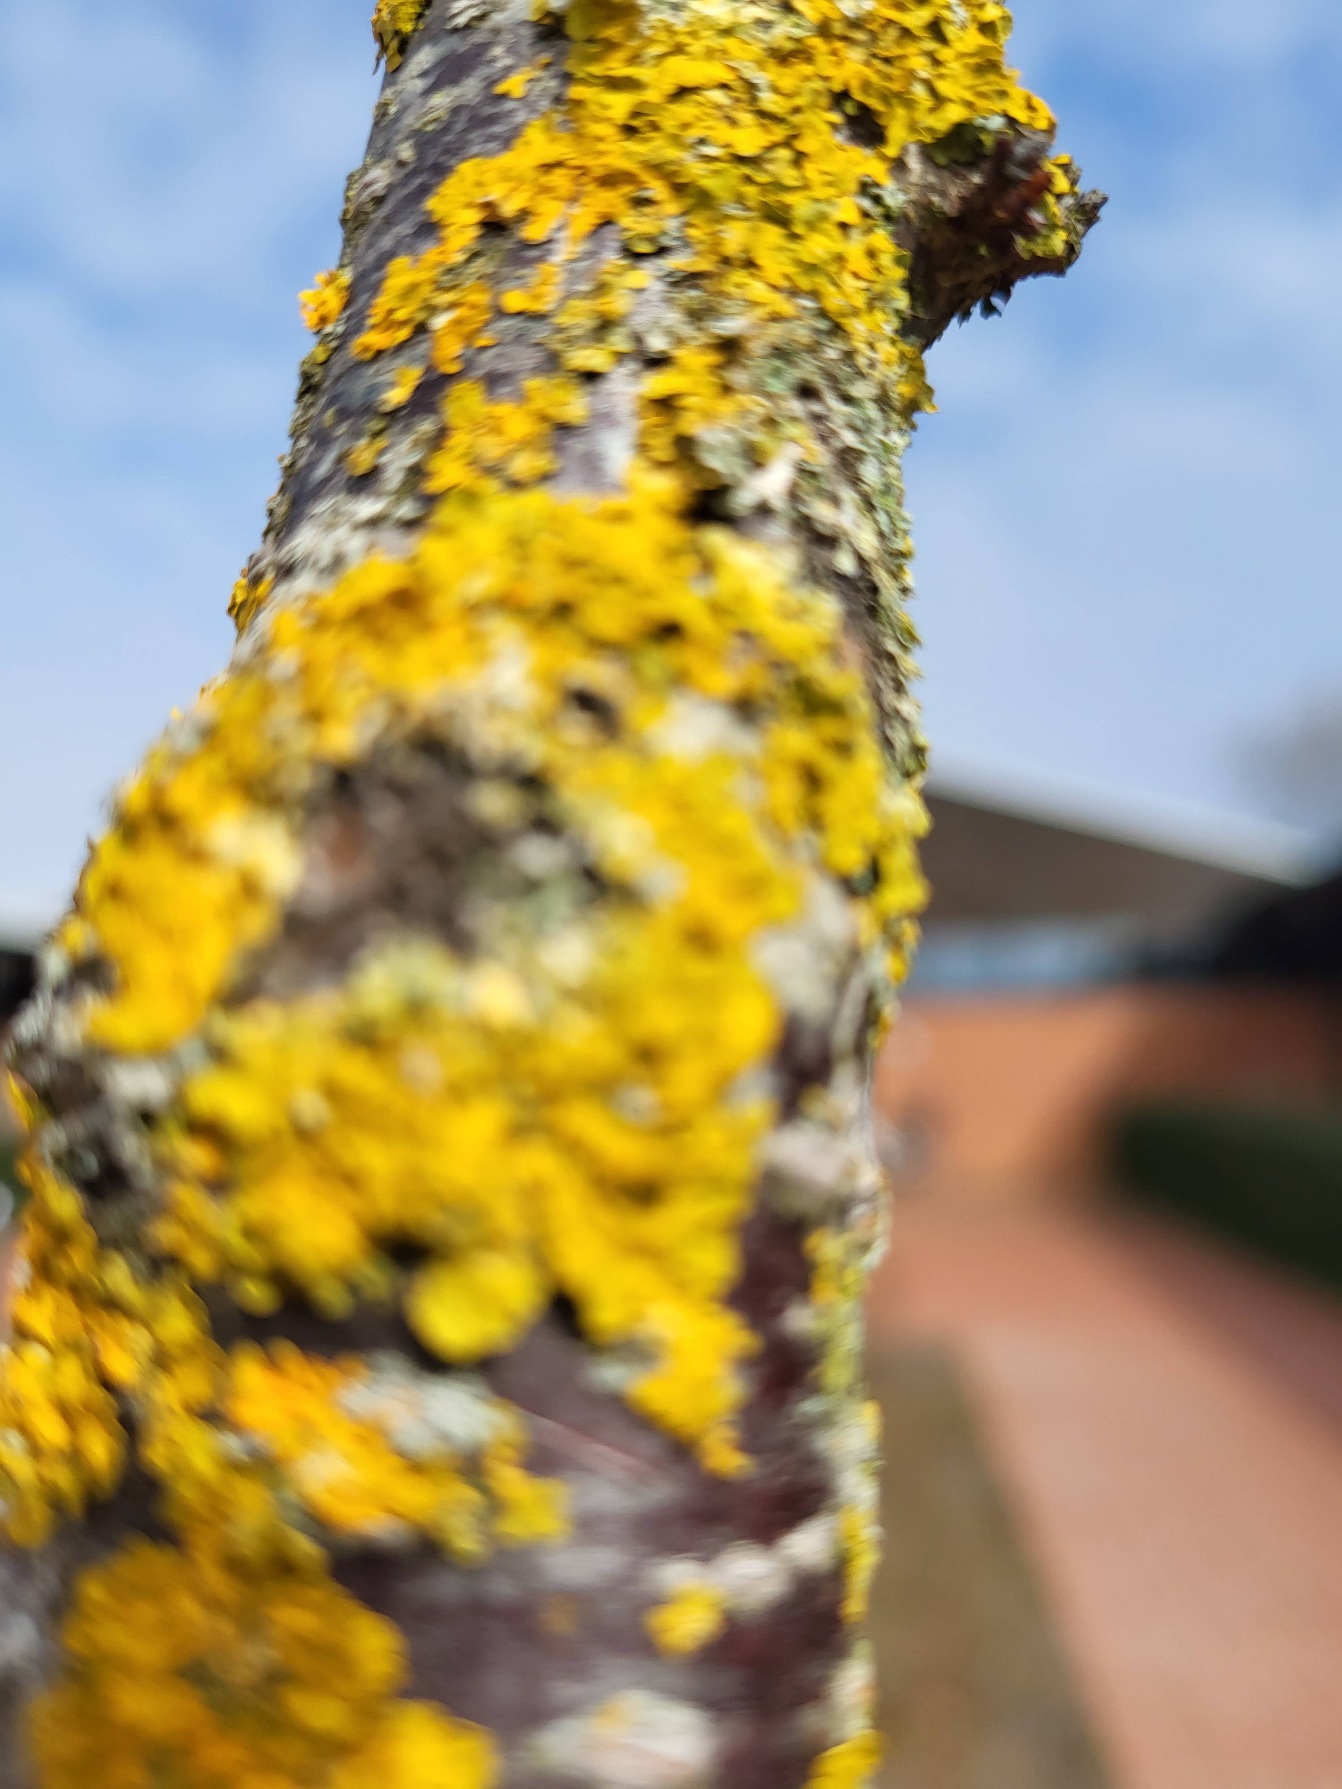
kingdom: Fungi
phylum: Ascomycota
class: Lecanoromycetes
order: Teloschistales
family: Teloschistaceae
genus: Xanthoria
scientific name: Xanthoria parietina
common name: Almindelig væggelav
